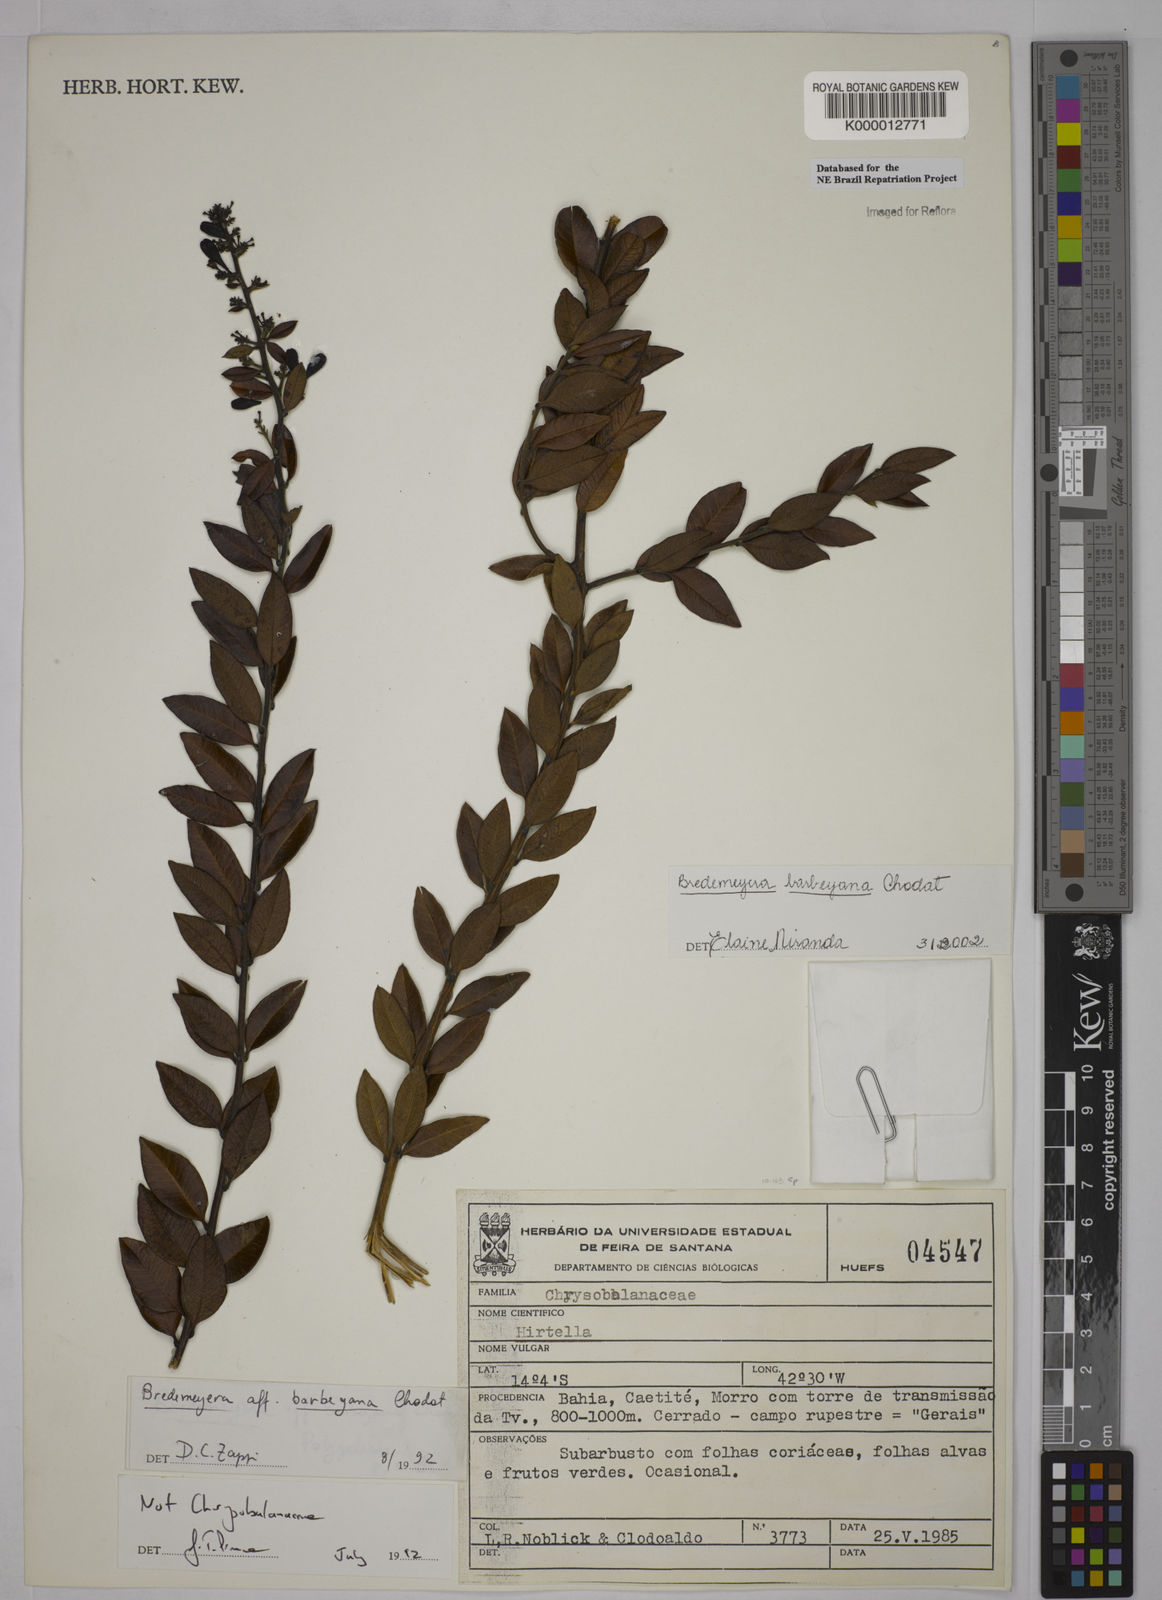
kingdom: Plantae
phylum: Tracheophyta
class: Magnoliopsida
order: Fabales
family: Polygalaceae
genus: Bredemeyera
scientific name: Bredemeyera barbeyana
